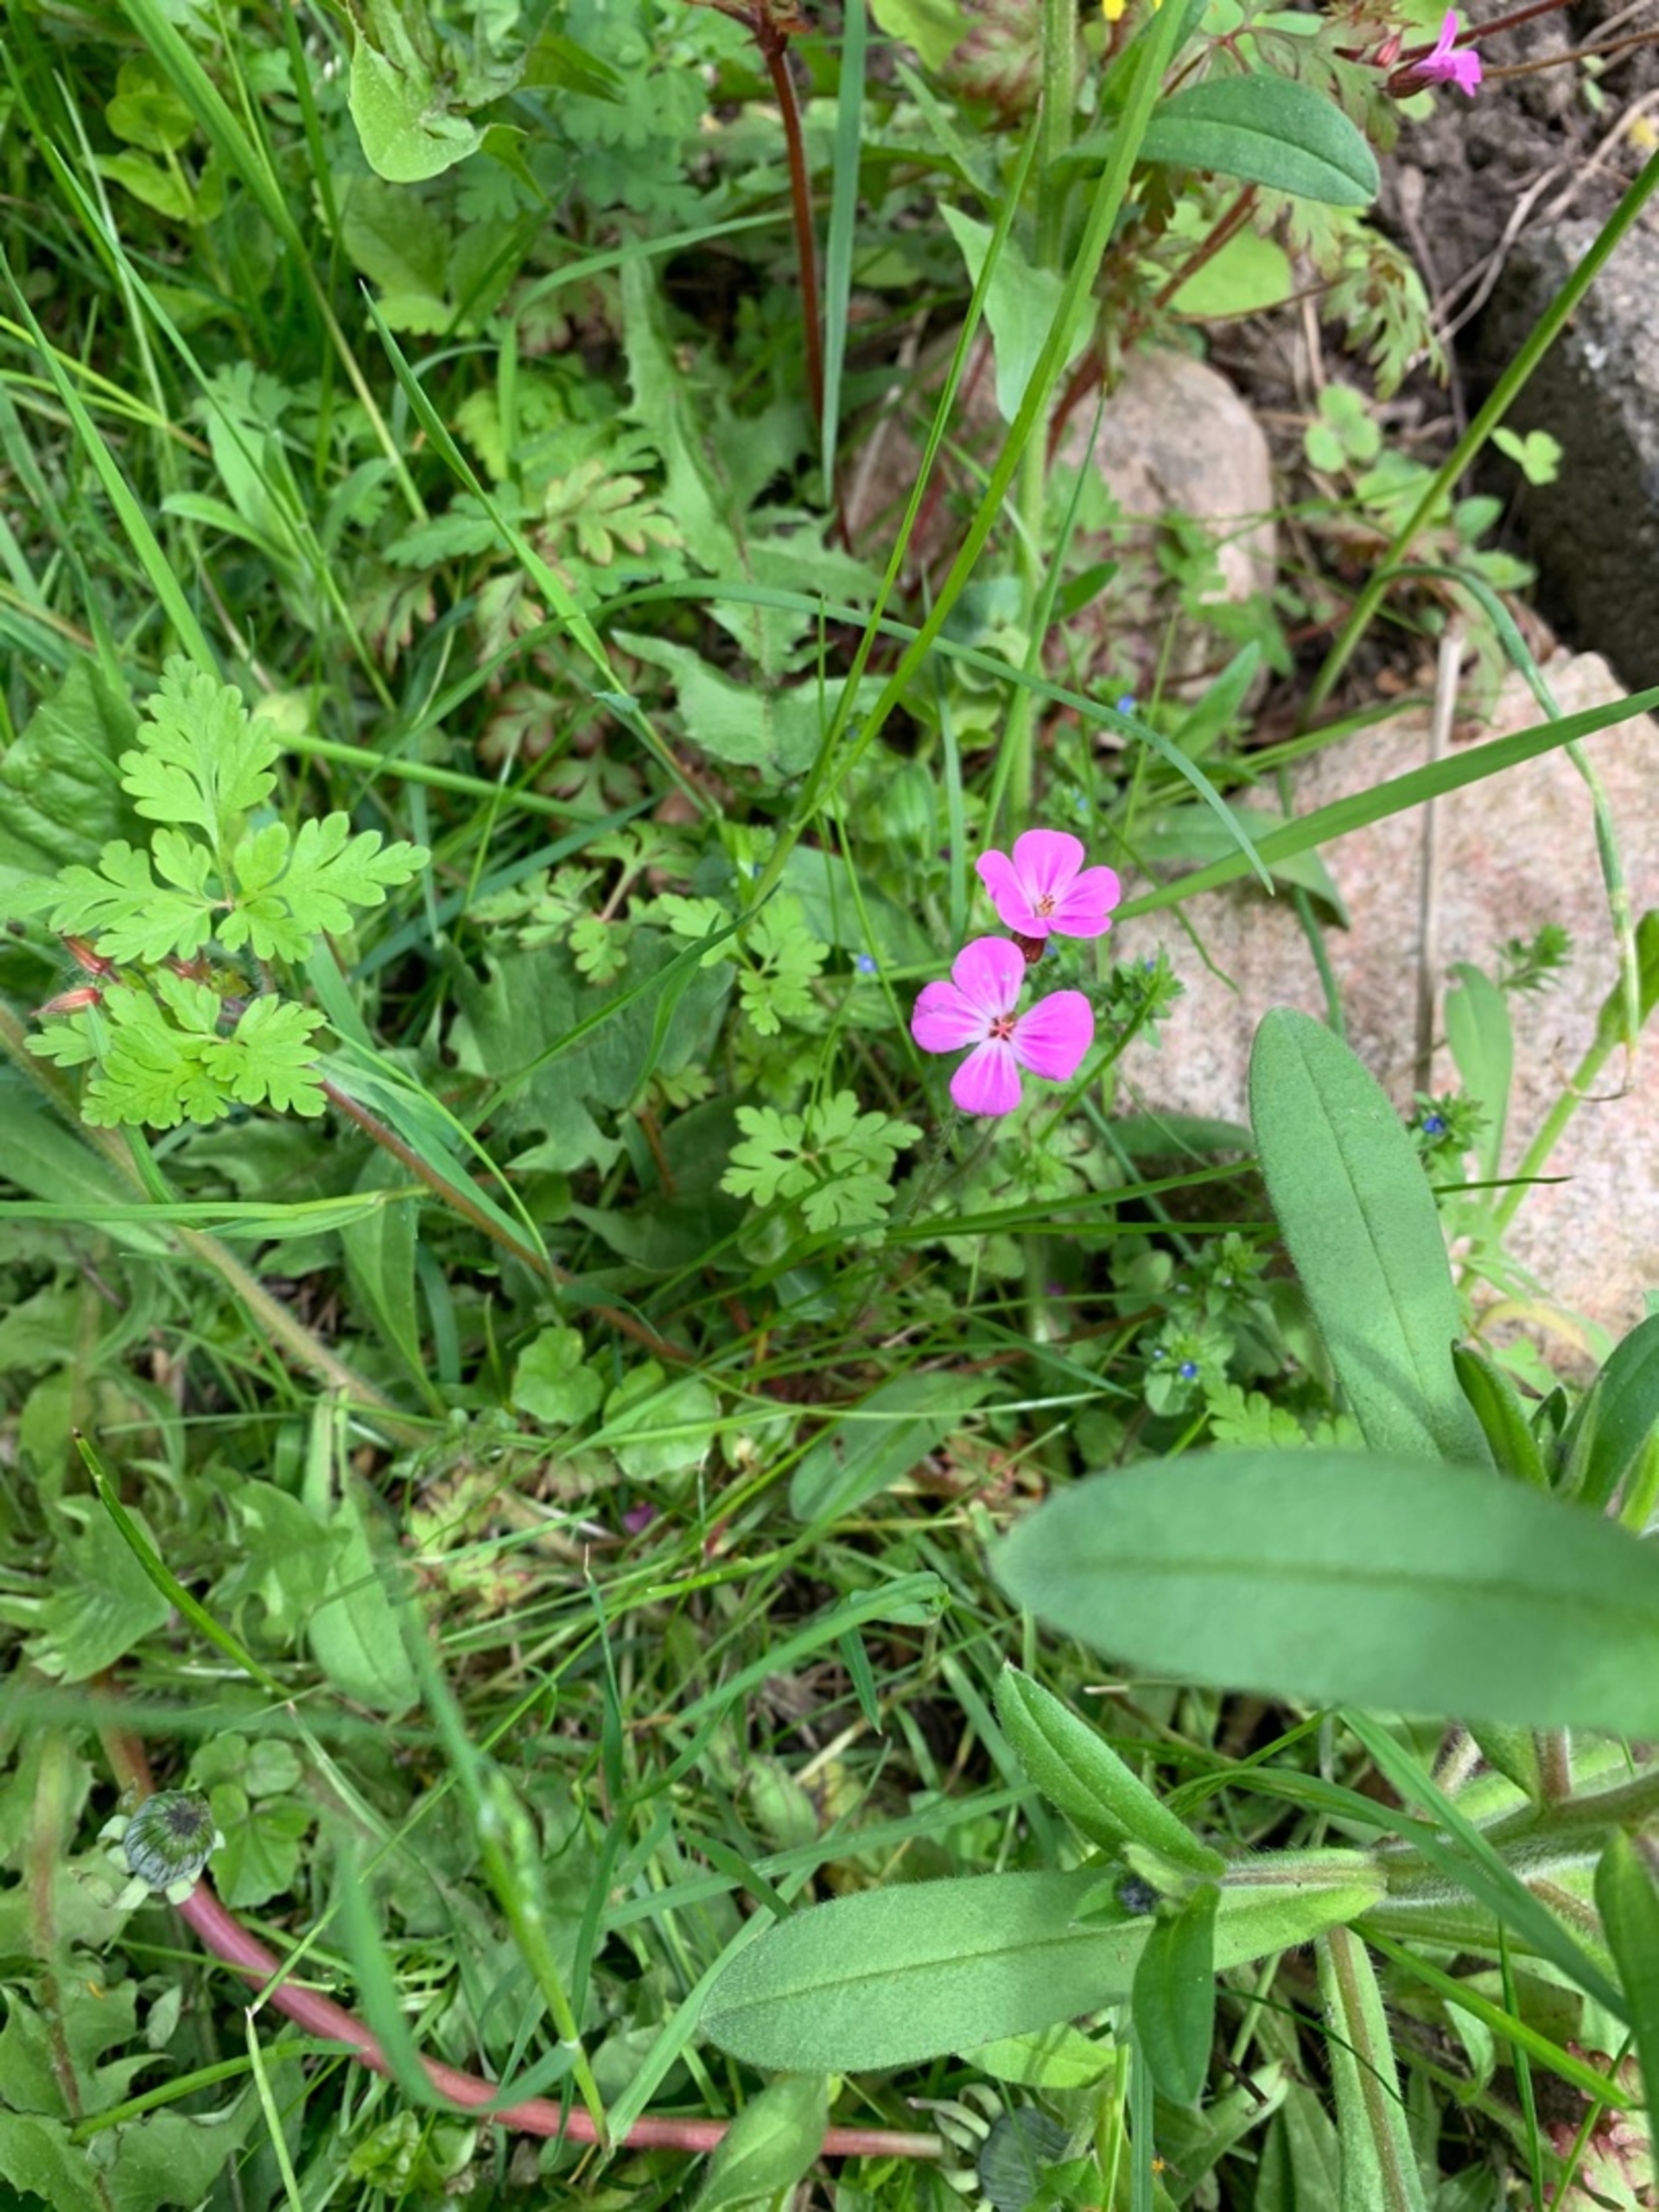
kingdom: Plantae
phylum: Tracheophyta
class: Magnoliopsida
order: Geraniales
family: Geraniaceae
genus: Geranium
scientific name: Geranium robertianum
